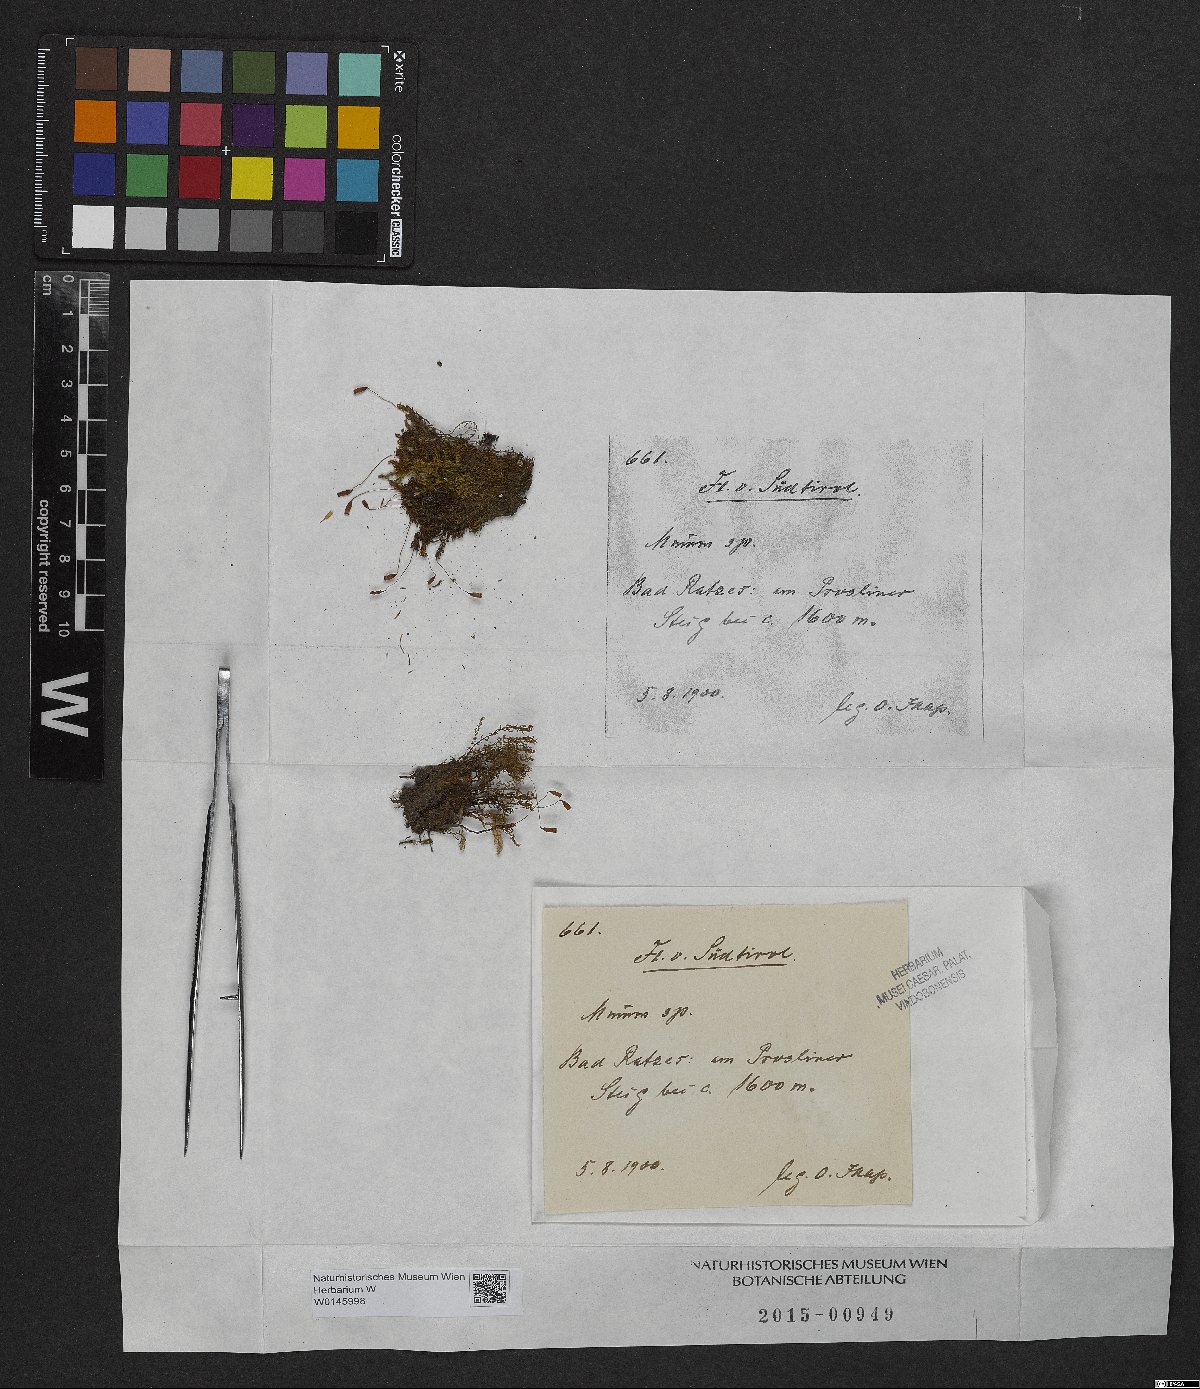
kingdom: Plantae
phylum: Bryophyta
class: Bryopsida
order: Bryales
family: Mniaceae
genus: Mnium
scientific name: Mnium
